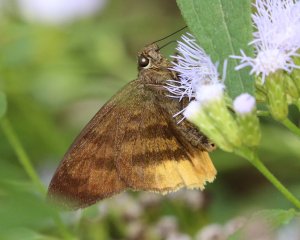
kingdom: Animalia
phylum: Arthropoda
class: Insecta
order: Lepidoptera
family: Hesperiidae
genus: Astraptes
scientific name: Astraptes anaphus
